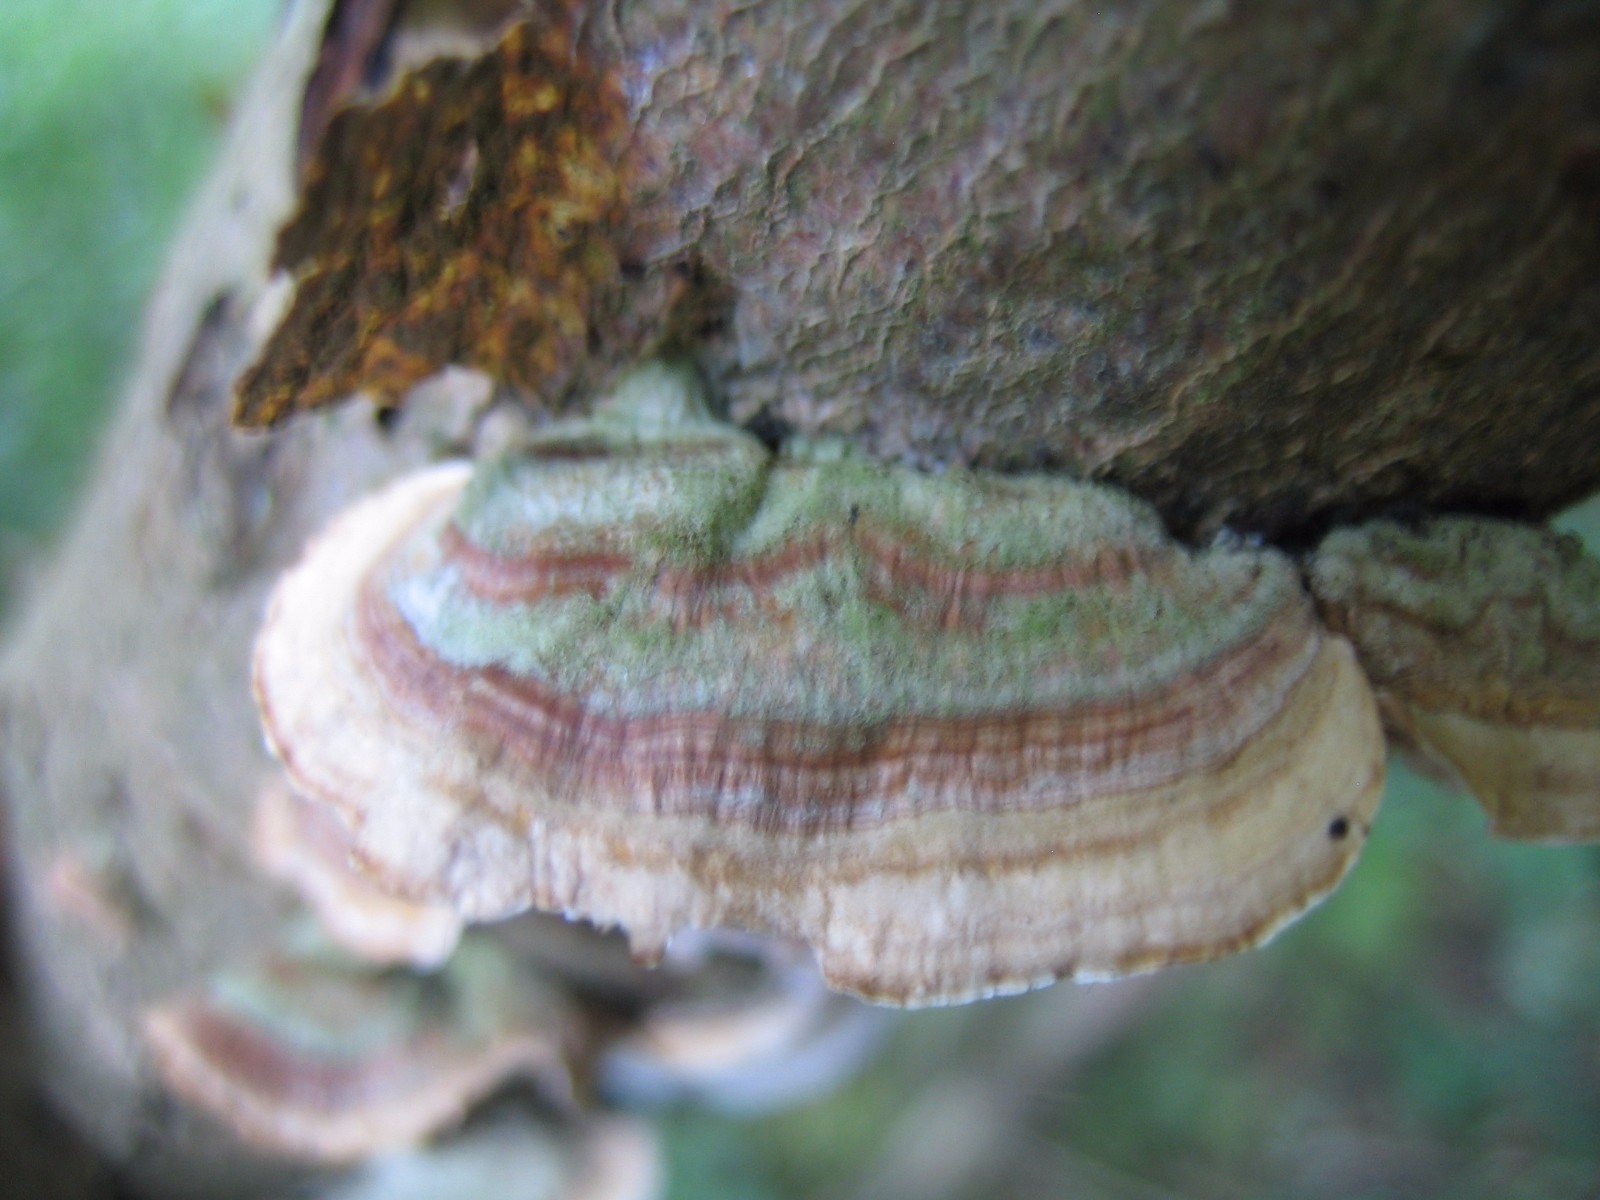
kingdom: Fungi
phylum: Basidiomycota
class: Agaricomycetes
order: Russulales
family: Stereaceae
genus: Stereum
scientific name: Stereum subtomentosum
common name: smuk lædersvamp
